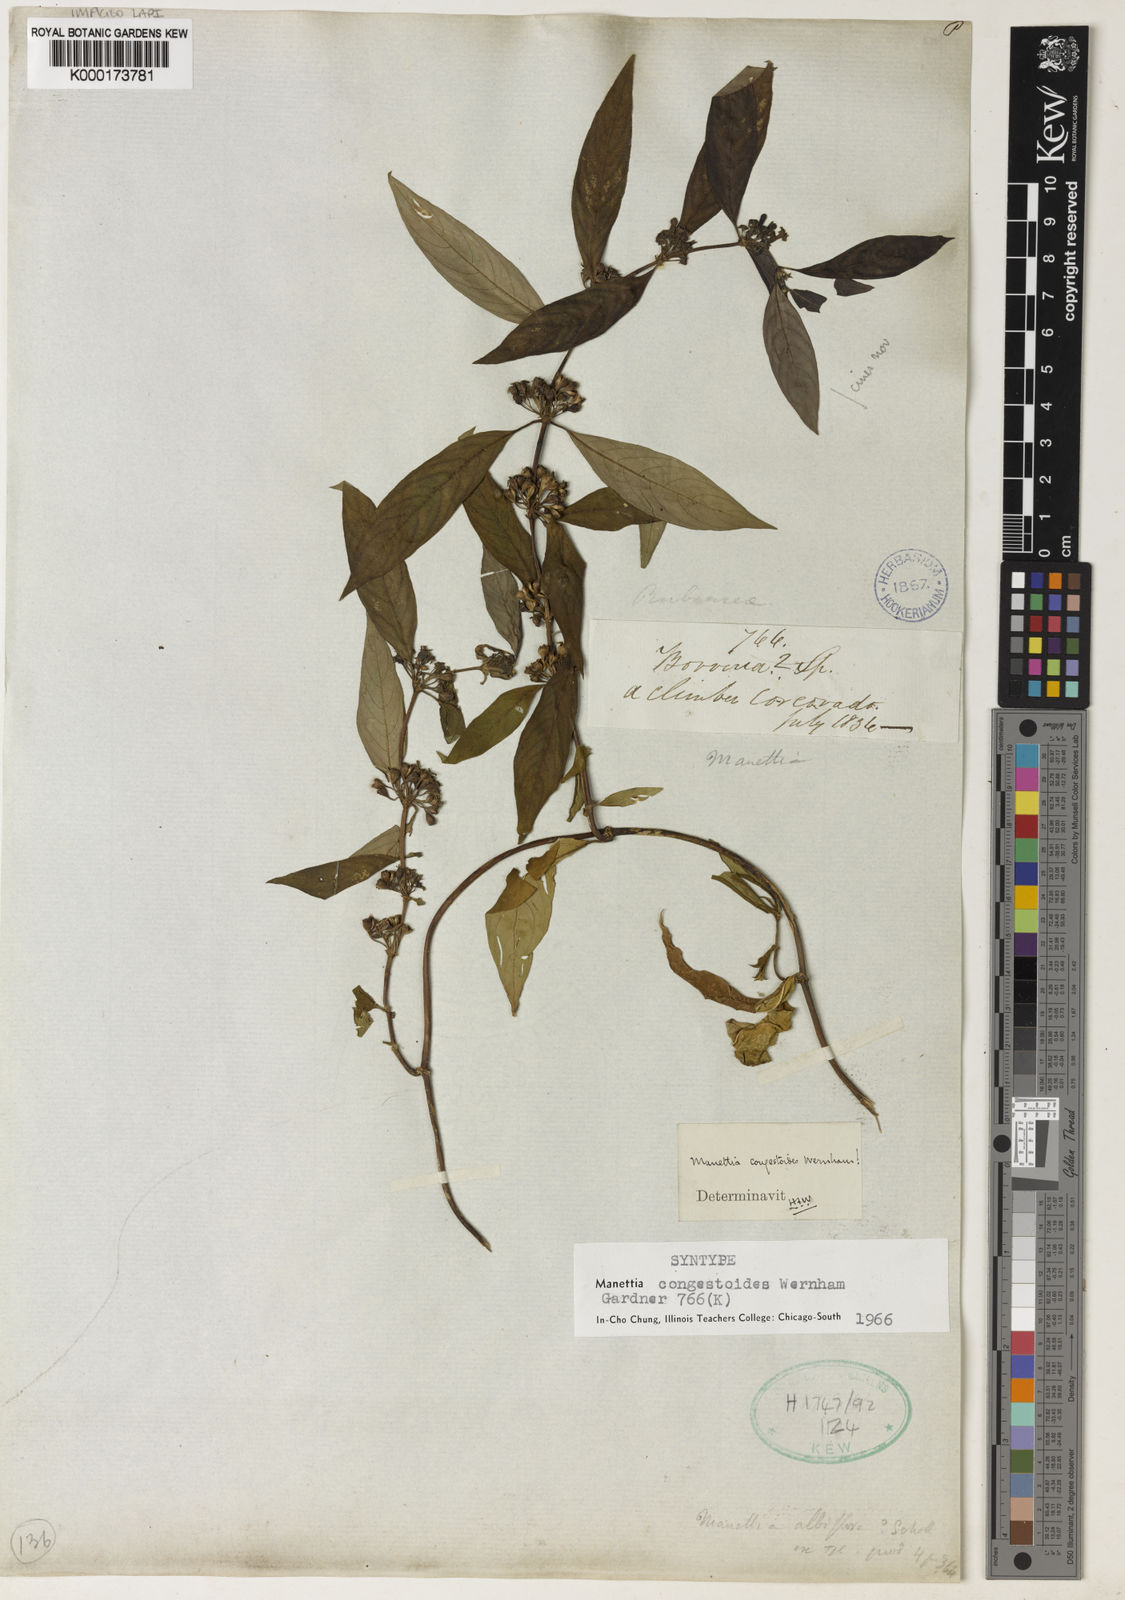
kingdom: Plantae
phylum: Tracheophyta
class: Magnoliopsida
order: Gentianales
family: Rubiaceae
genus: Manettia
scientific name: Manettia congestoides
